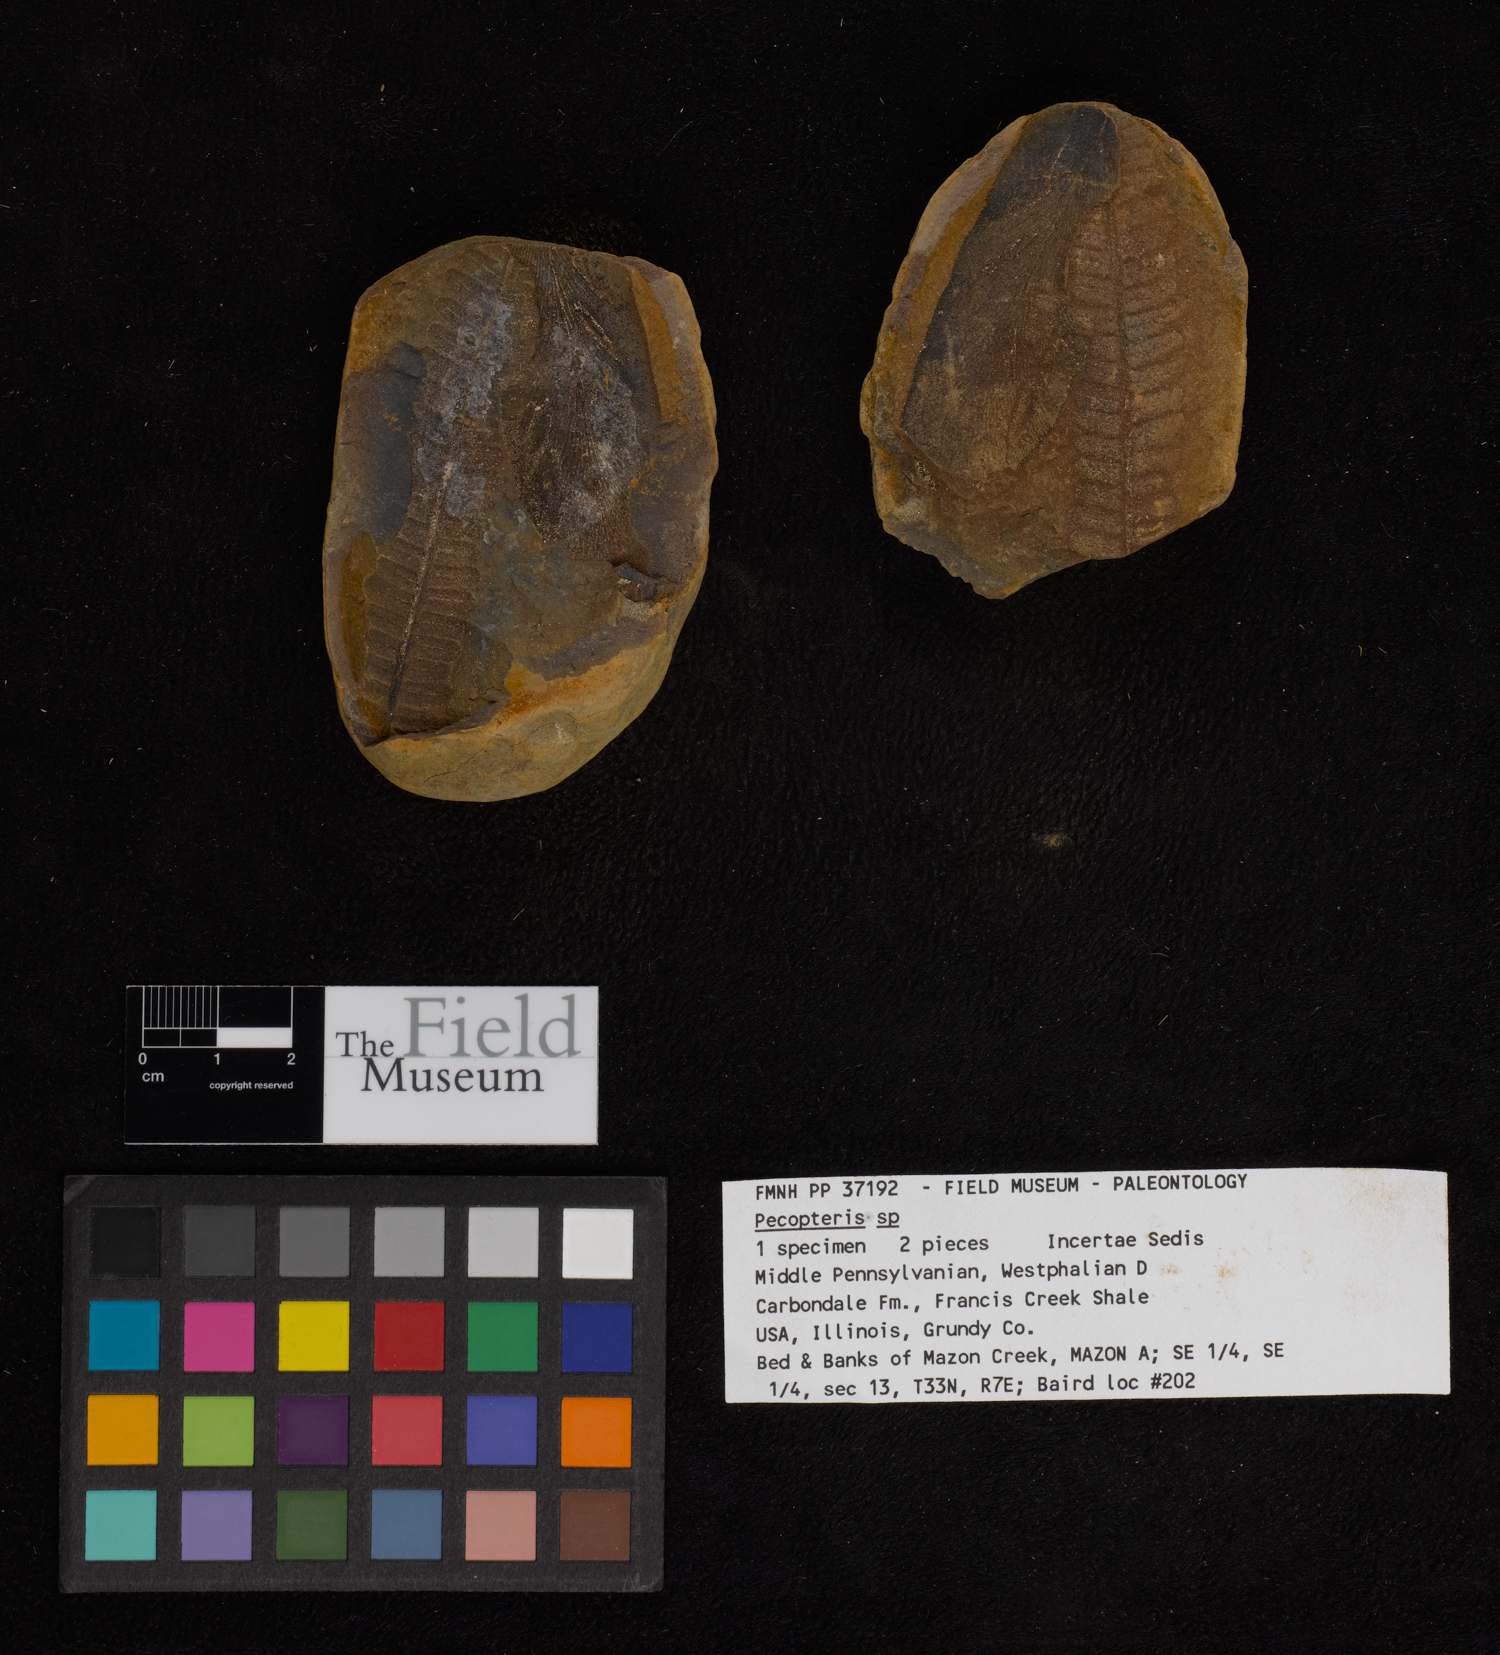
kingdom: Plantae
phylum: Tracheophyta
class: Polypodiopsida
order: Marattiales
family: Asterothecaceae
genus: Pecopteris
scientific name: Pecopteris
